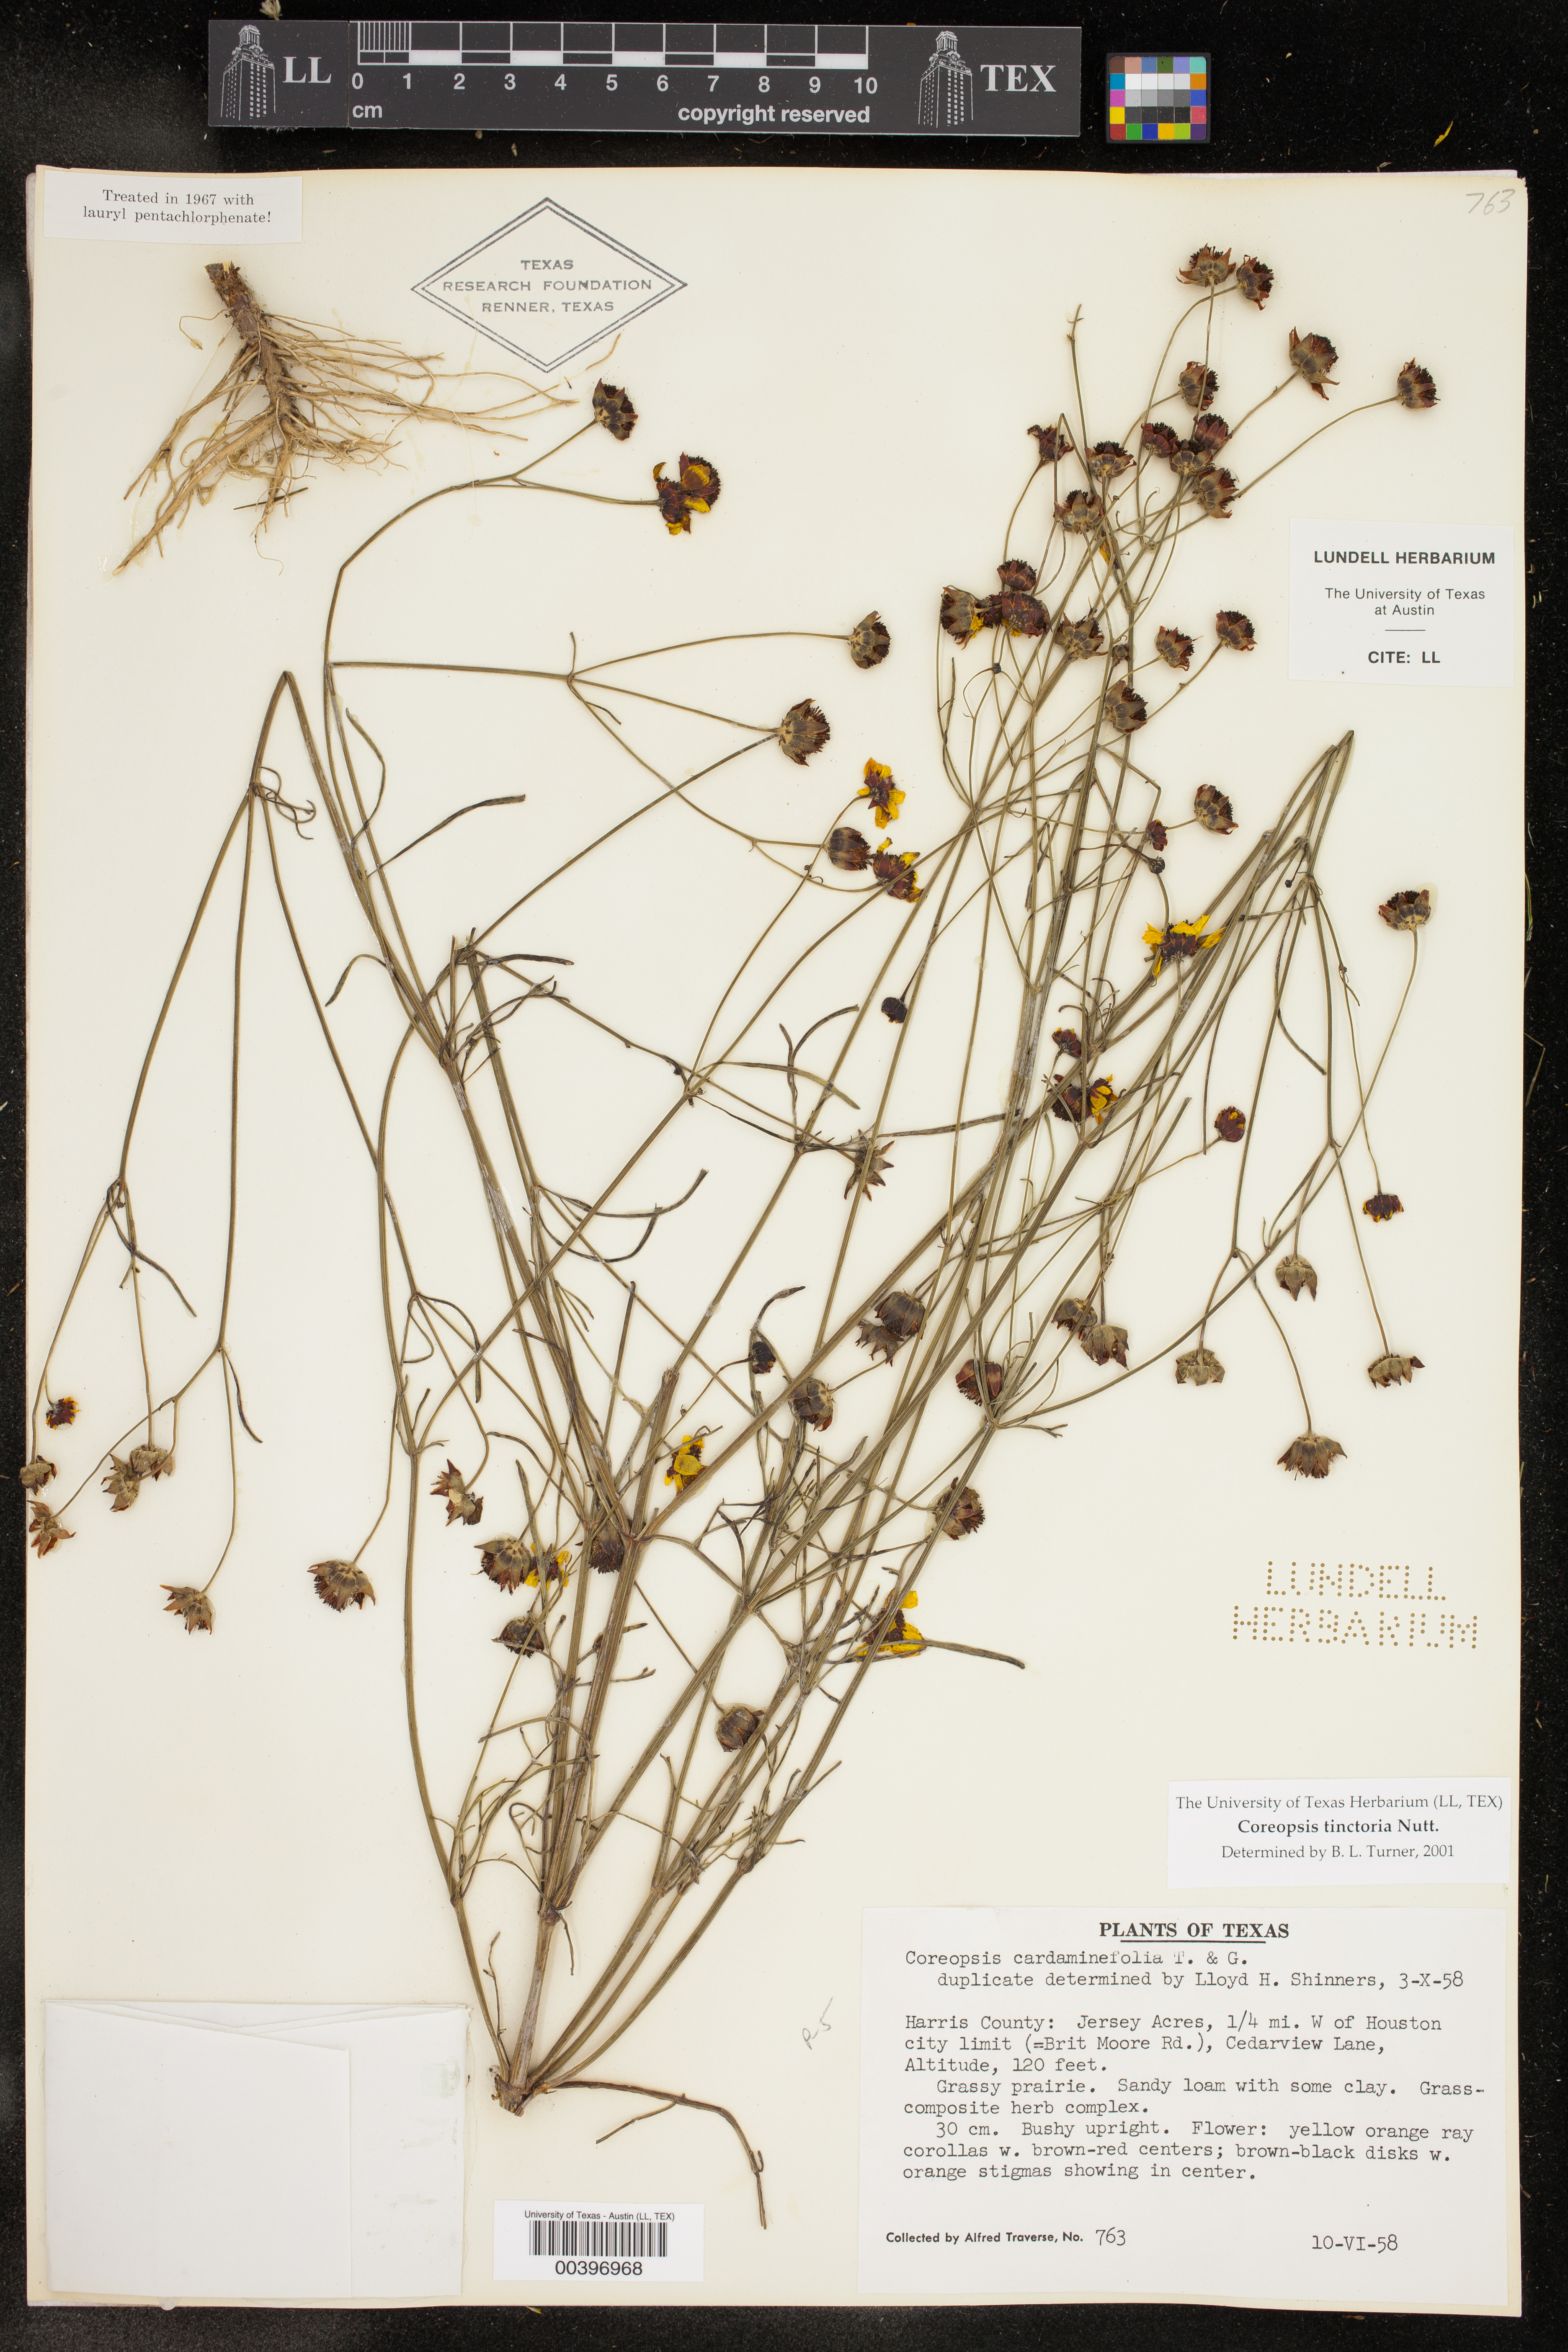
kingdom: Plantae
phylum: Tracheophyta
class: Magnoliopsida
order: Asterales
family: Asteraceae
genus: Coreopsis
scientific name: Coreopsis tinctoria
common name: Garden tickseed
